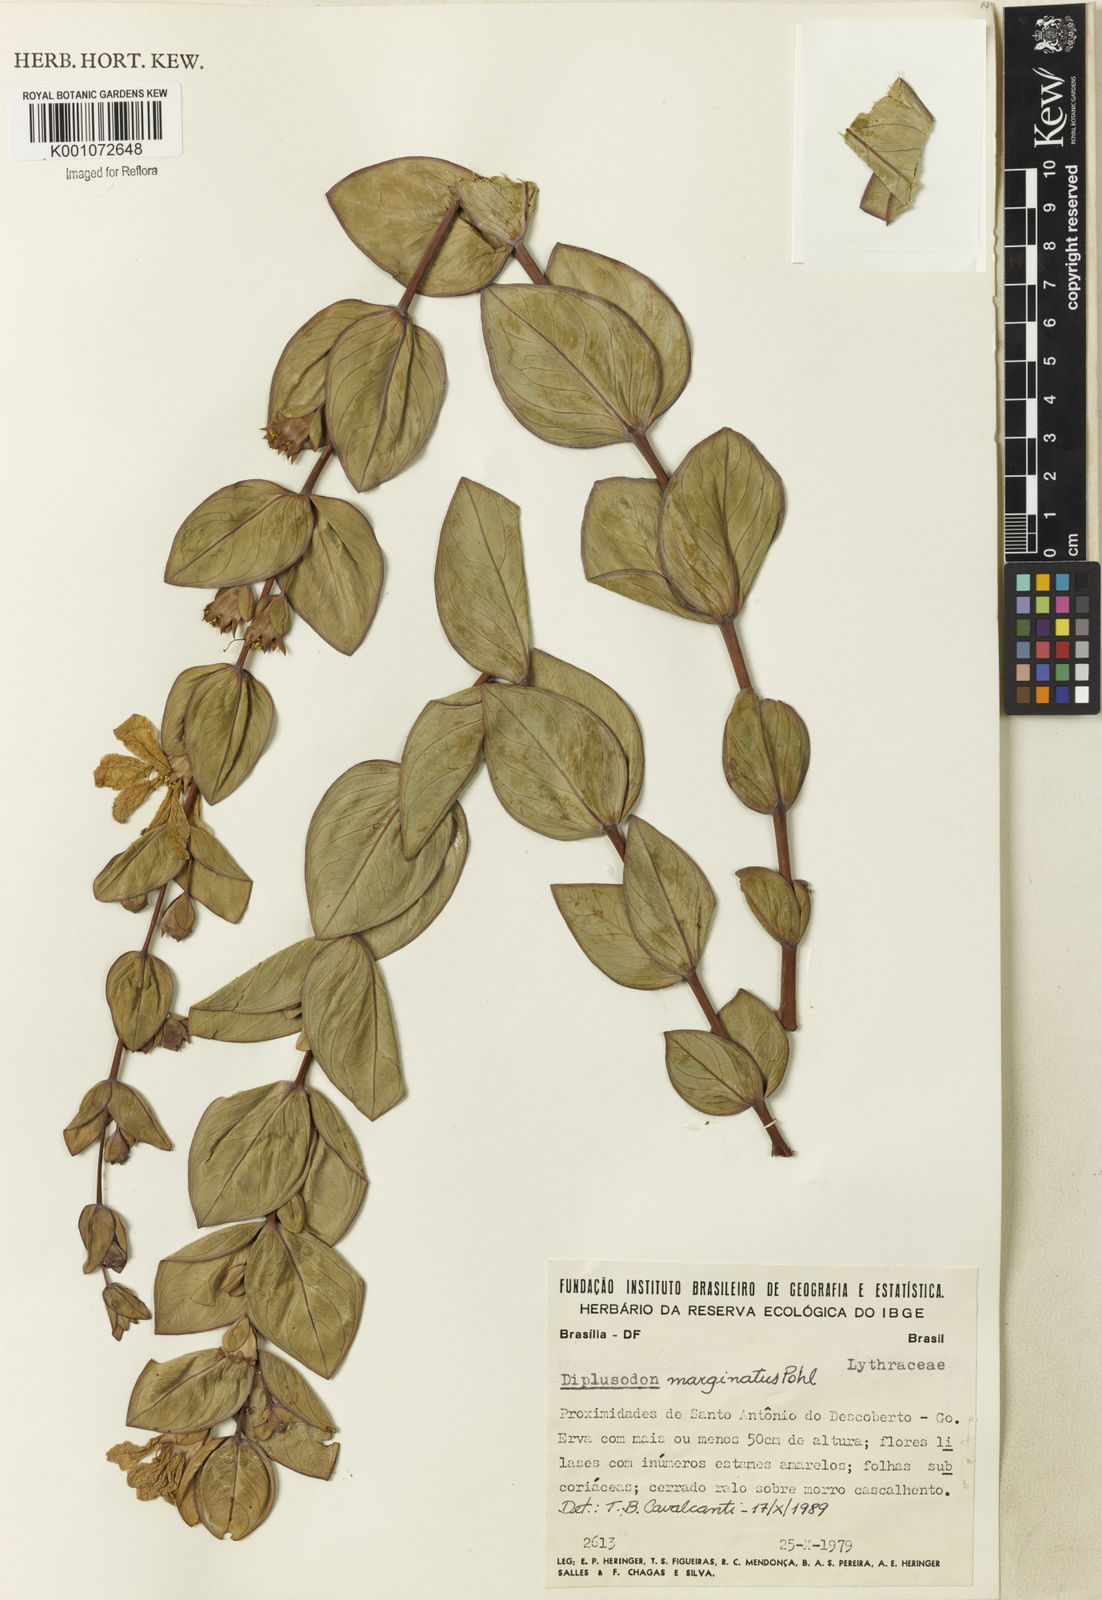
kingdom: Plantae
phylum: Tracheophyta
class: Magnoliopsida
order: Myrtales
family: Lythraceae
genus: Diplusodon
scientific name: Diplusodon marginatus
